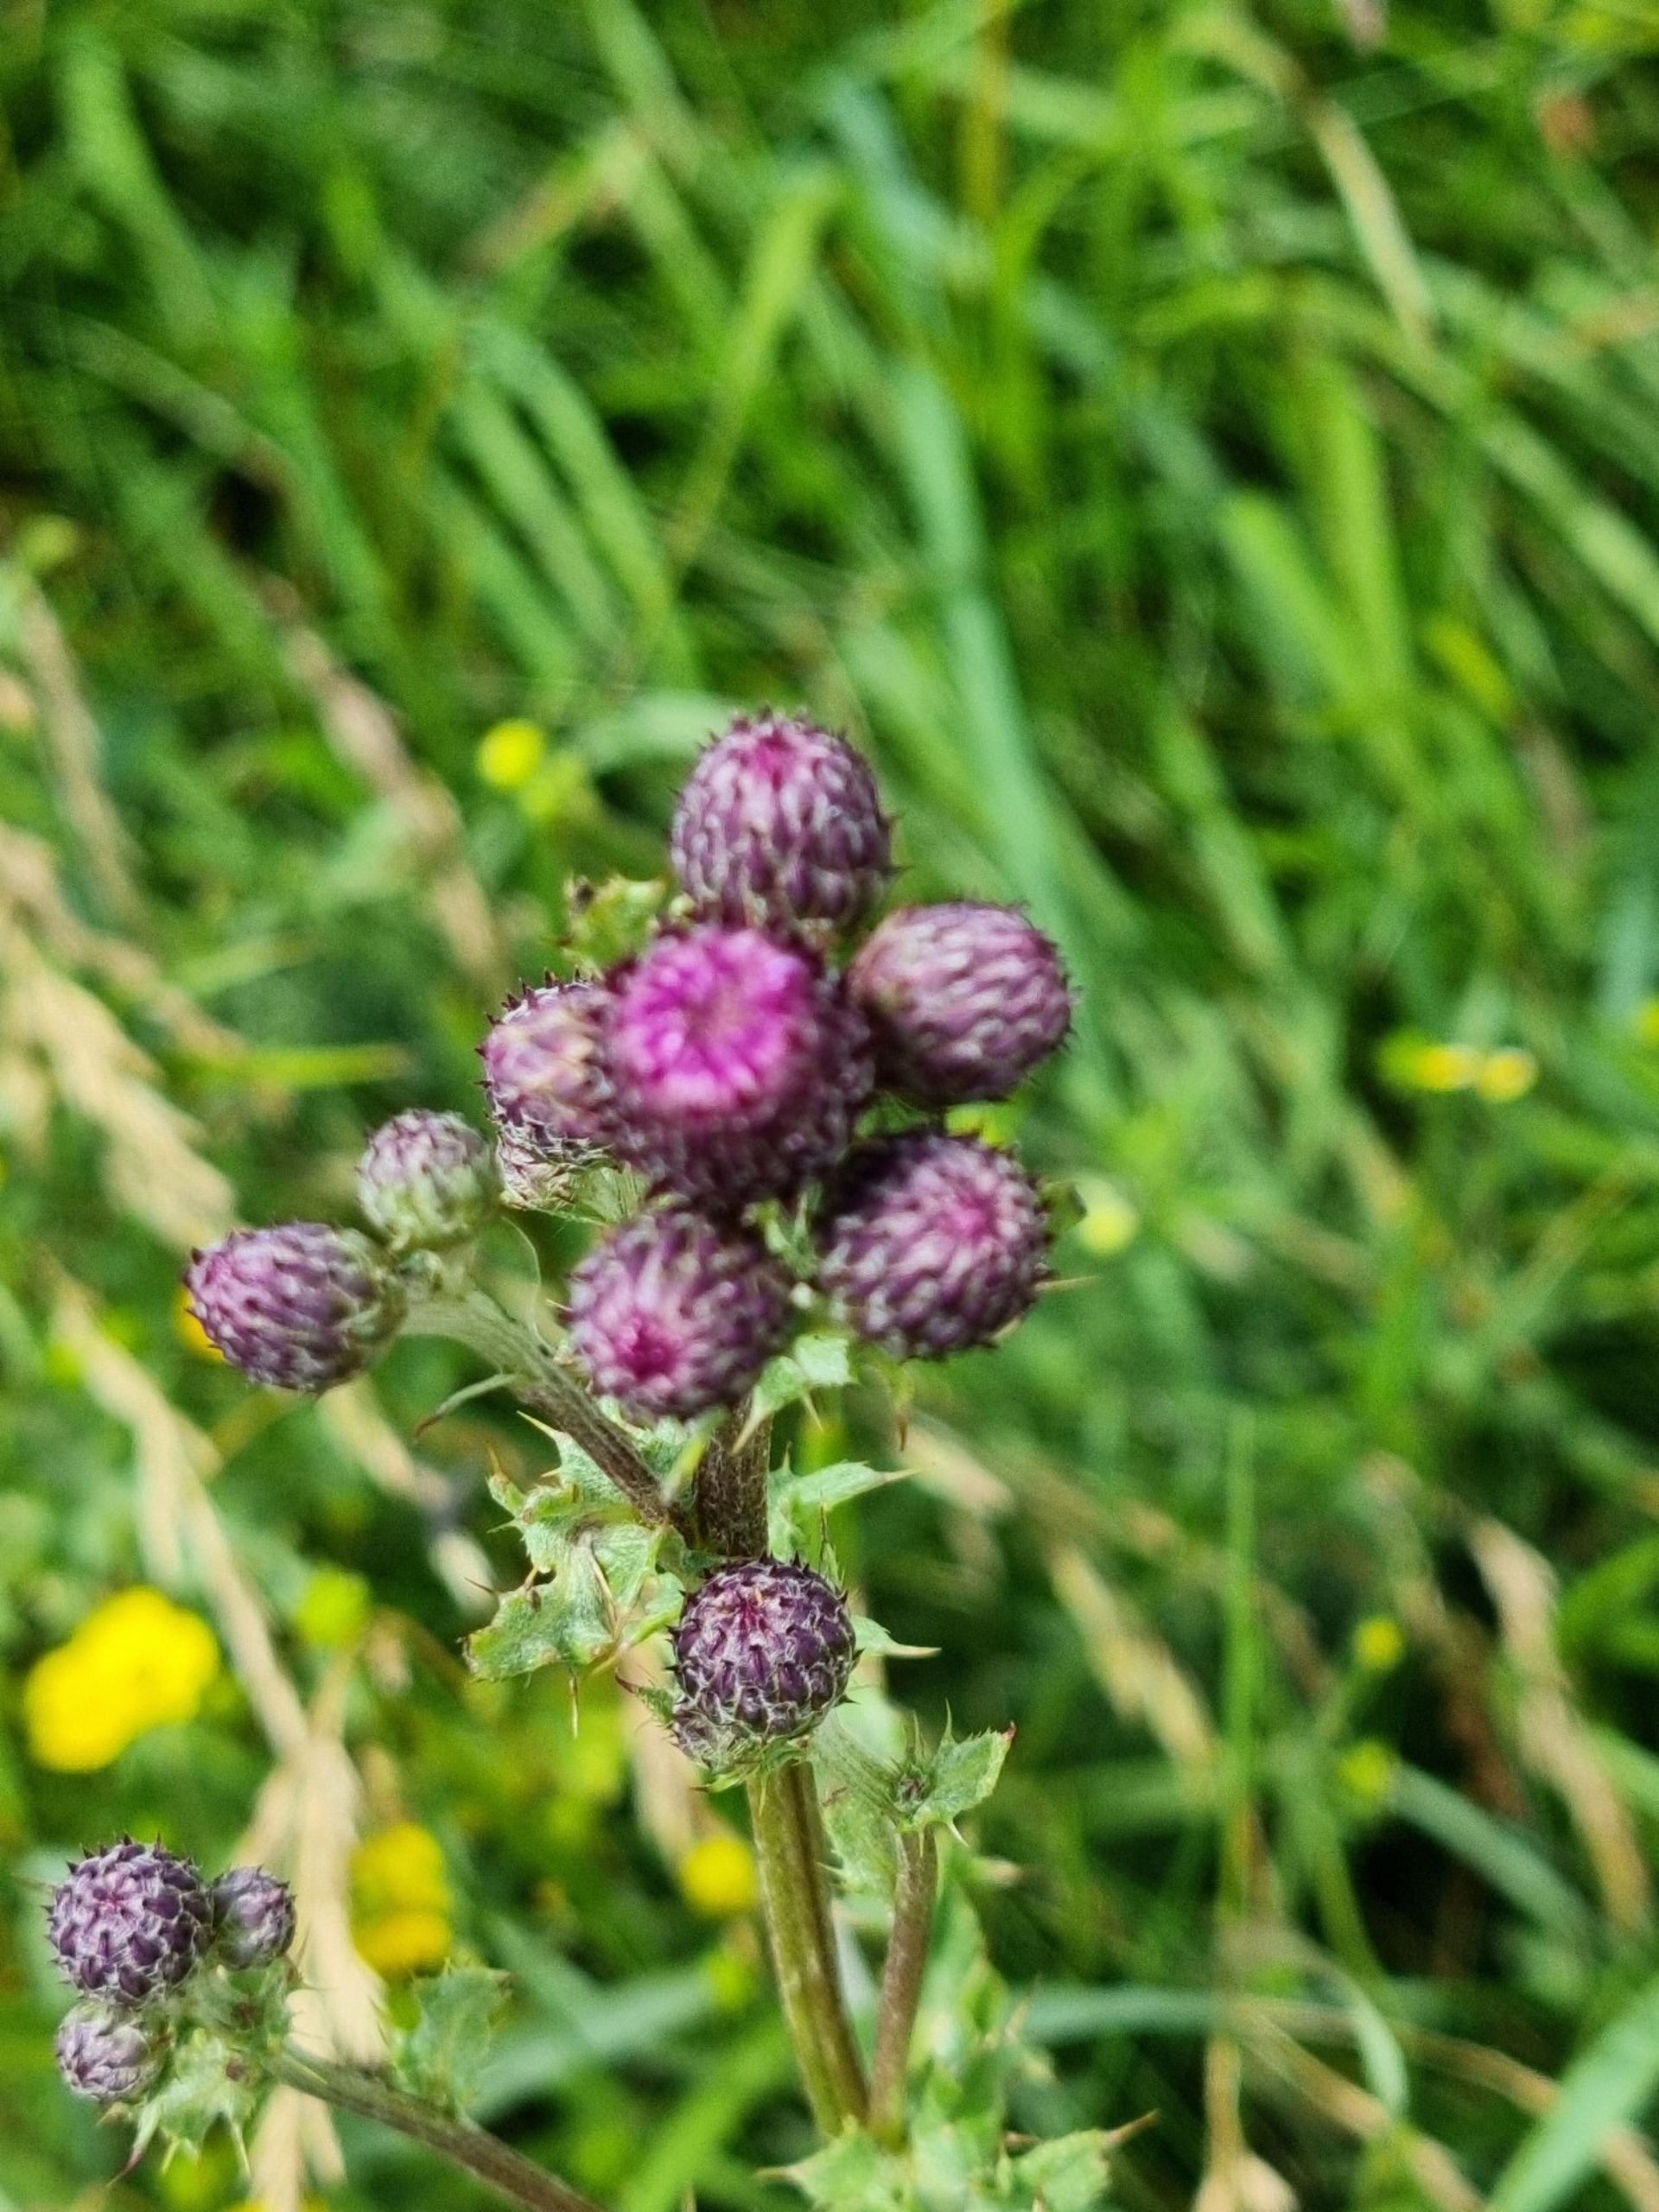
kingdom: Plantae
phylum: Tracheophyta
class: Magnoliopsida
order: Asterales
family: Asteraceae
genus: Cirsium
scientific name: Cirsium arvense
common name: Ager-tidsel
